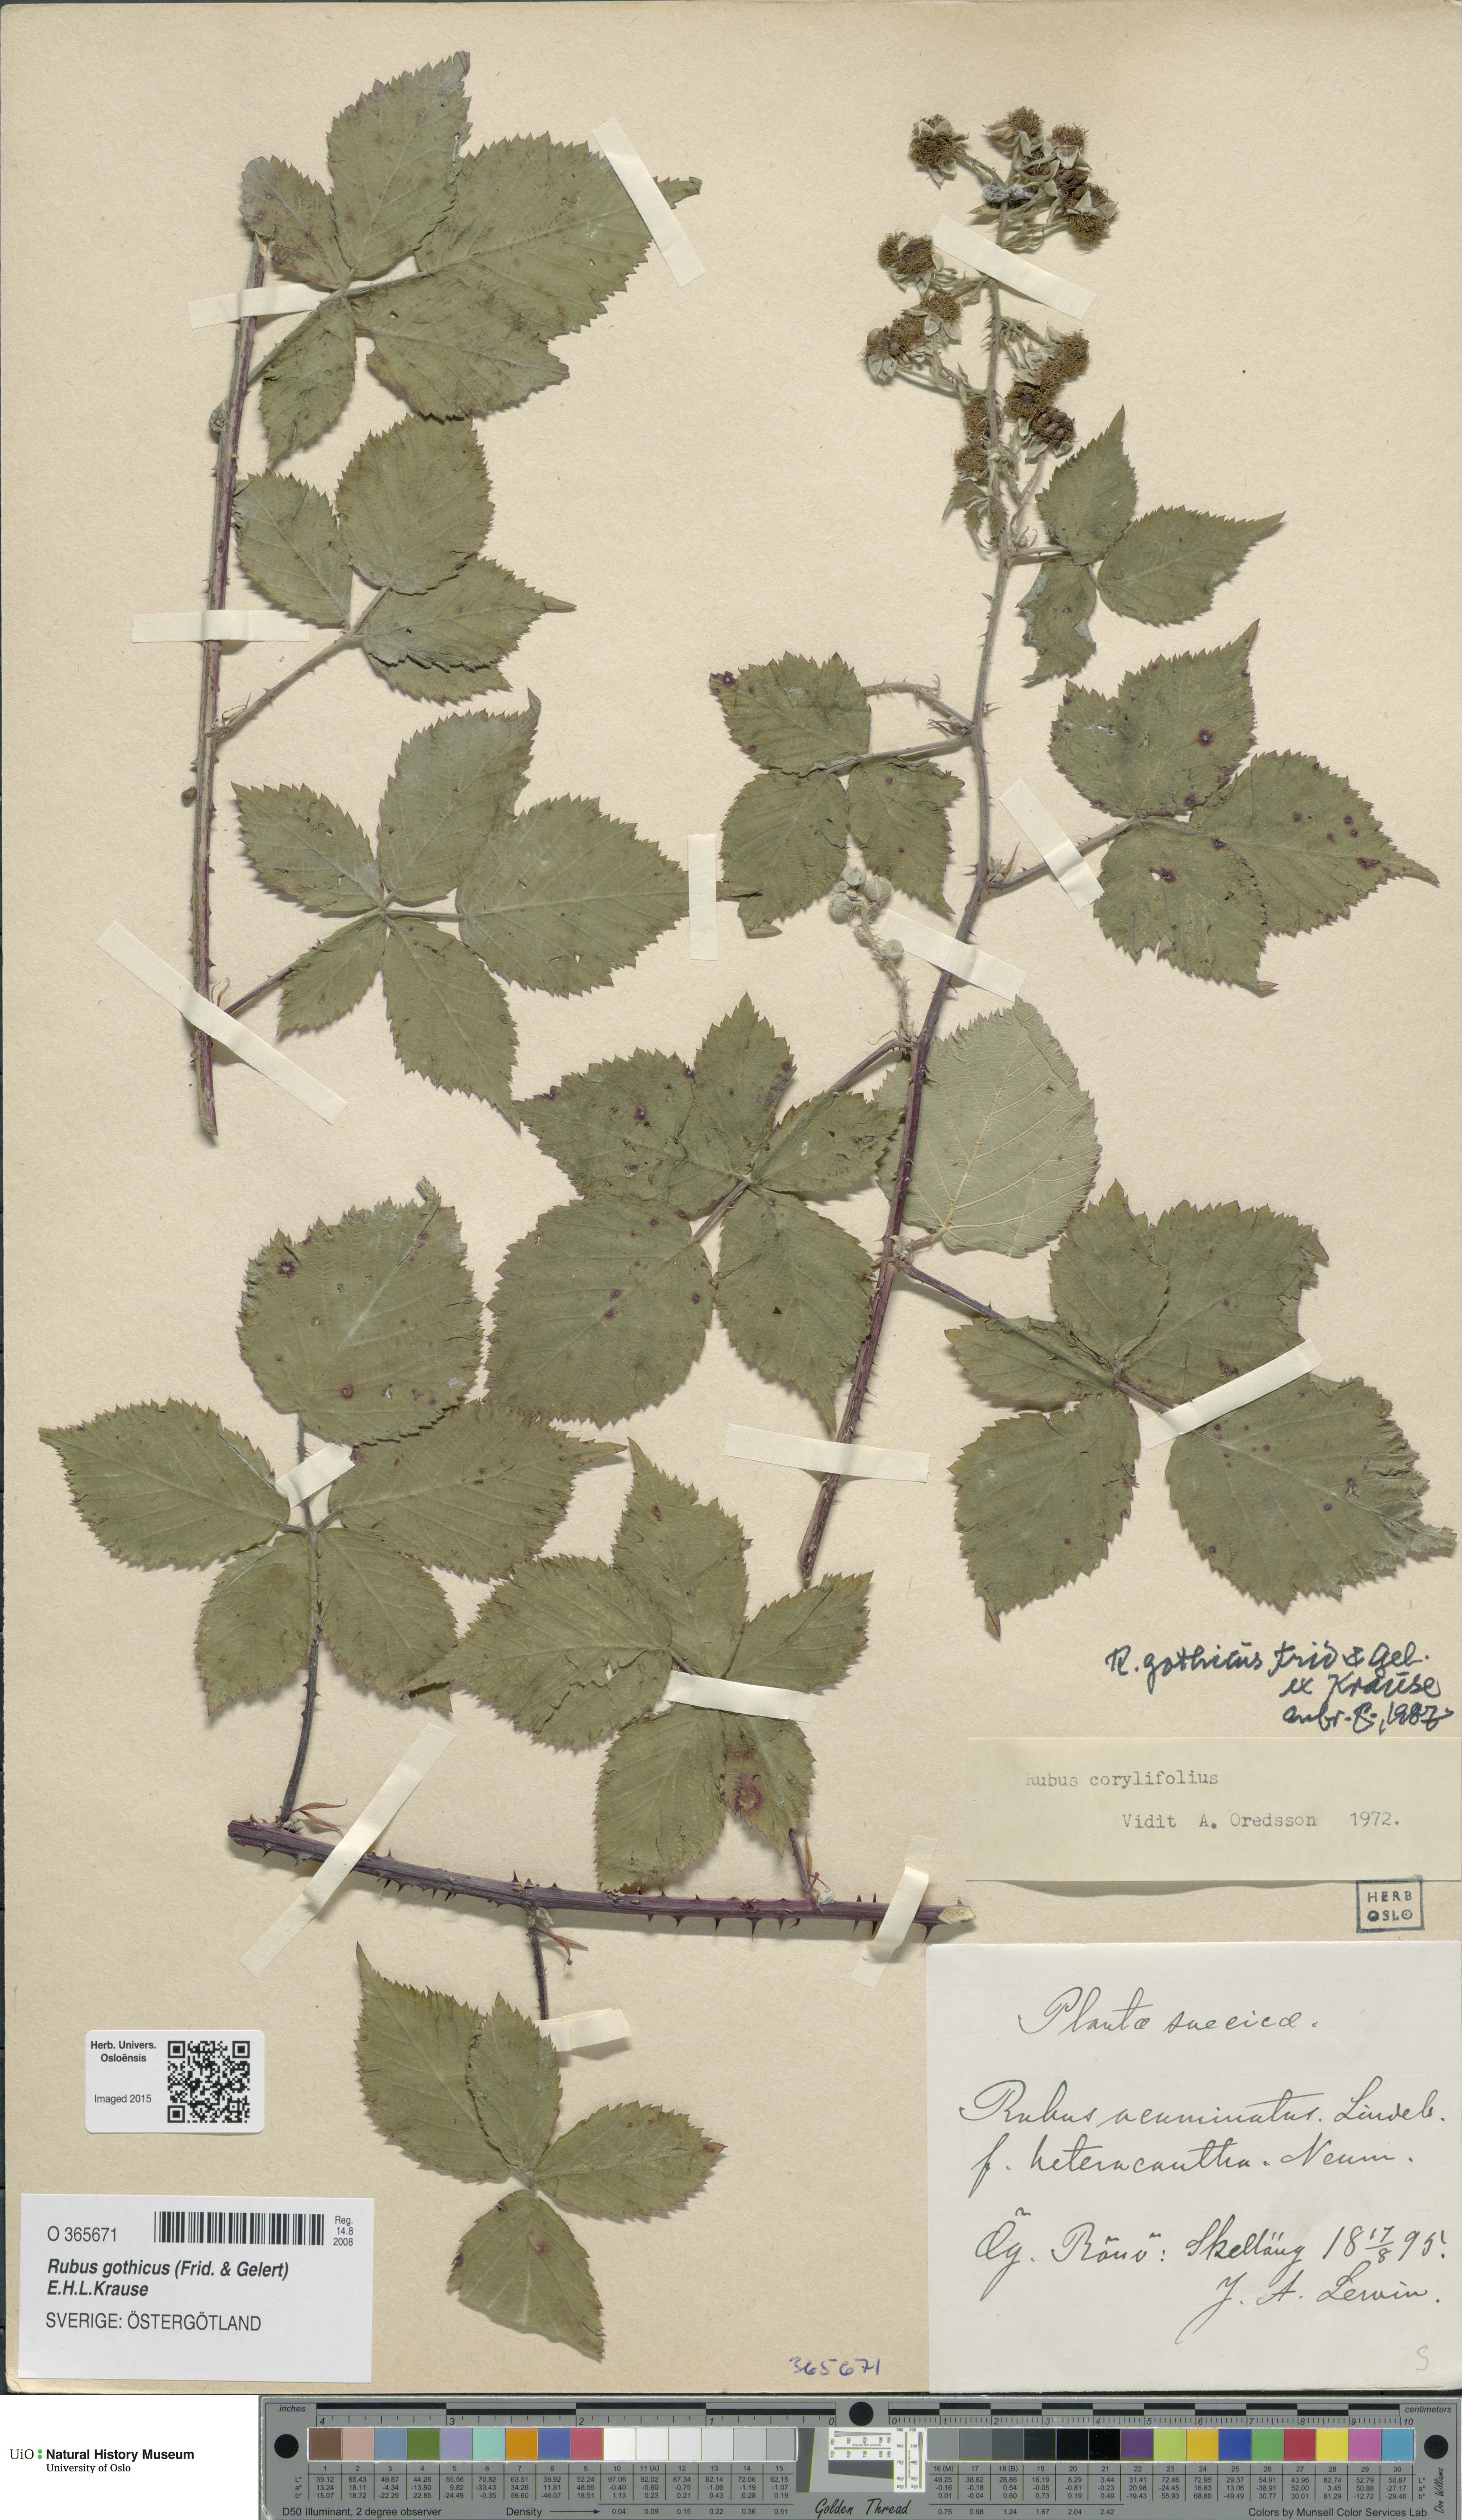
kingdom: Plantae
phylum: Tracheophyta
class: Magnoliopsida
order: Rosales
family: Rosaceae
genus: Rubus
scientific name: Rubus gothicus
